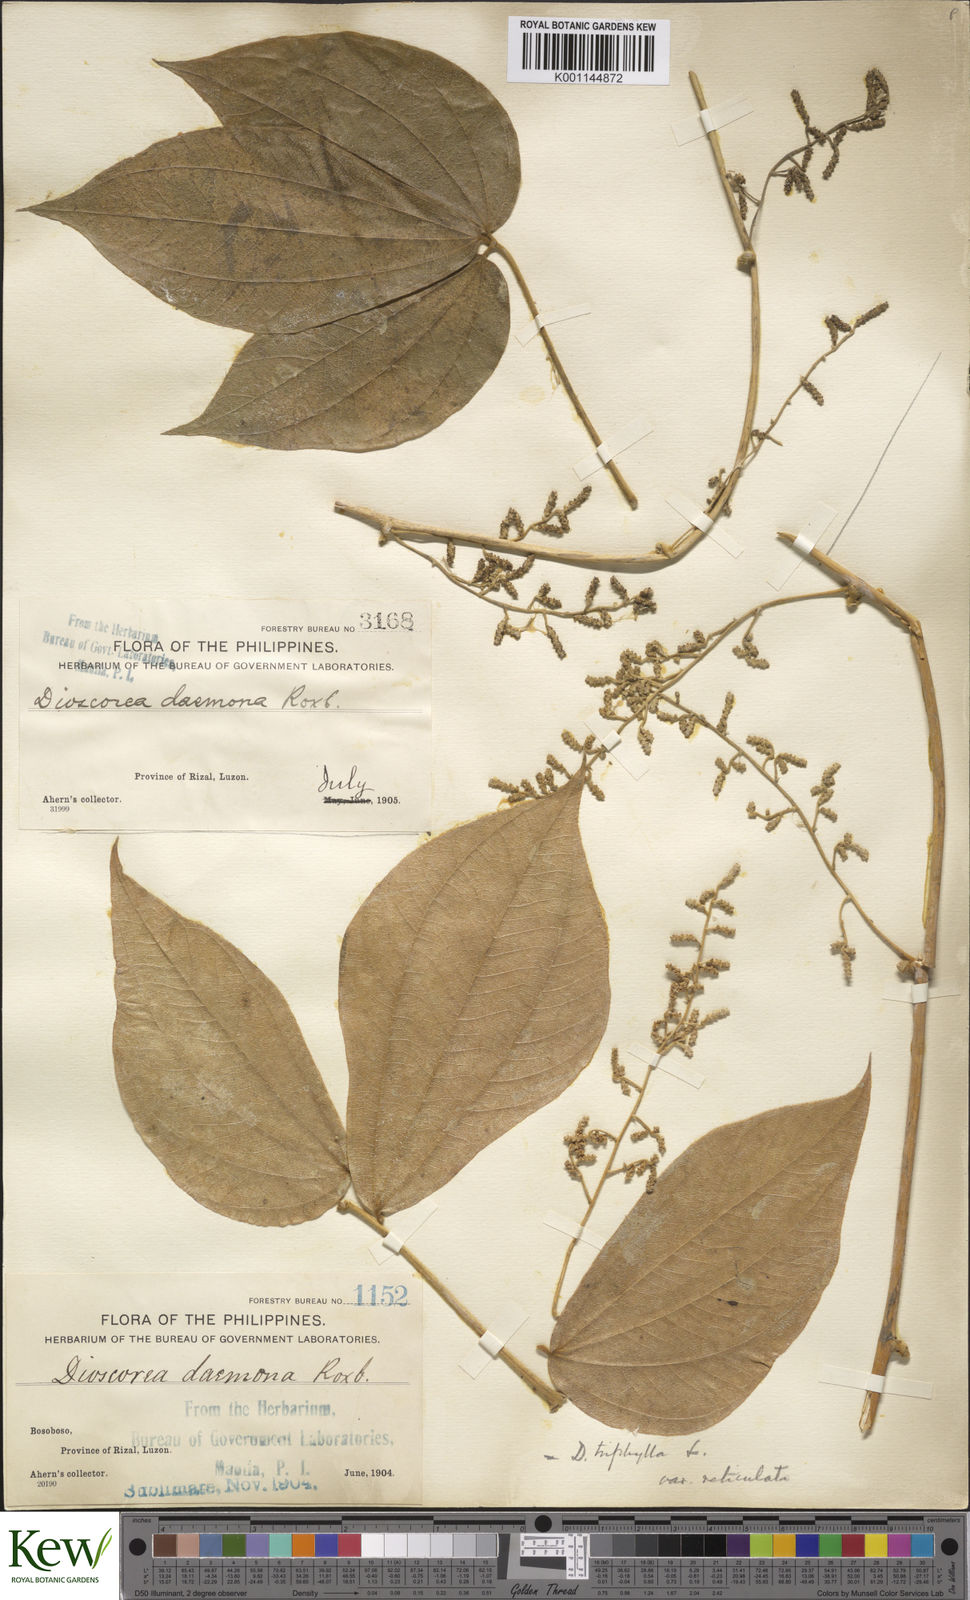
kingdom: Plantae
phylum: Tracheophyta
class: Liliopsida
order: Dioscoreales
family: Dioscoreaceae
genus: Dioscorea
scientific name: Dioscorea hispida
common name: Asiatic bitter yam
